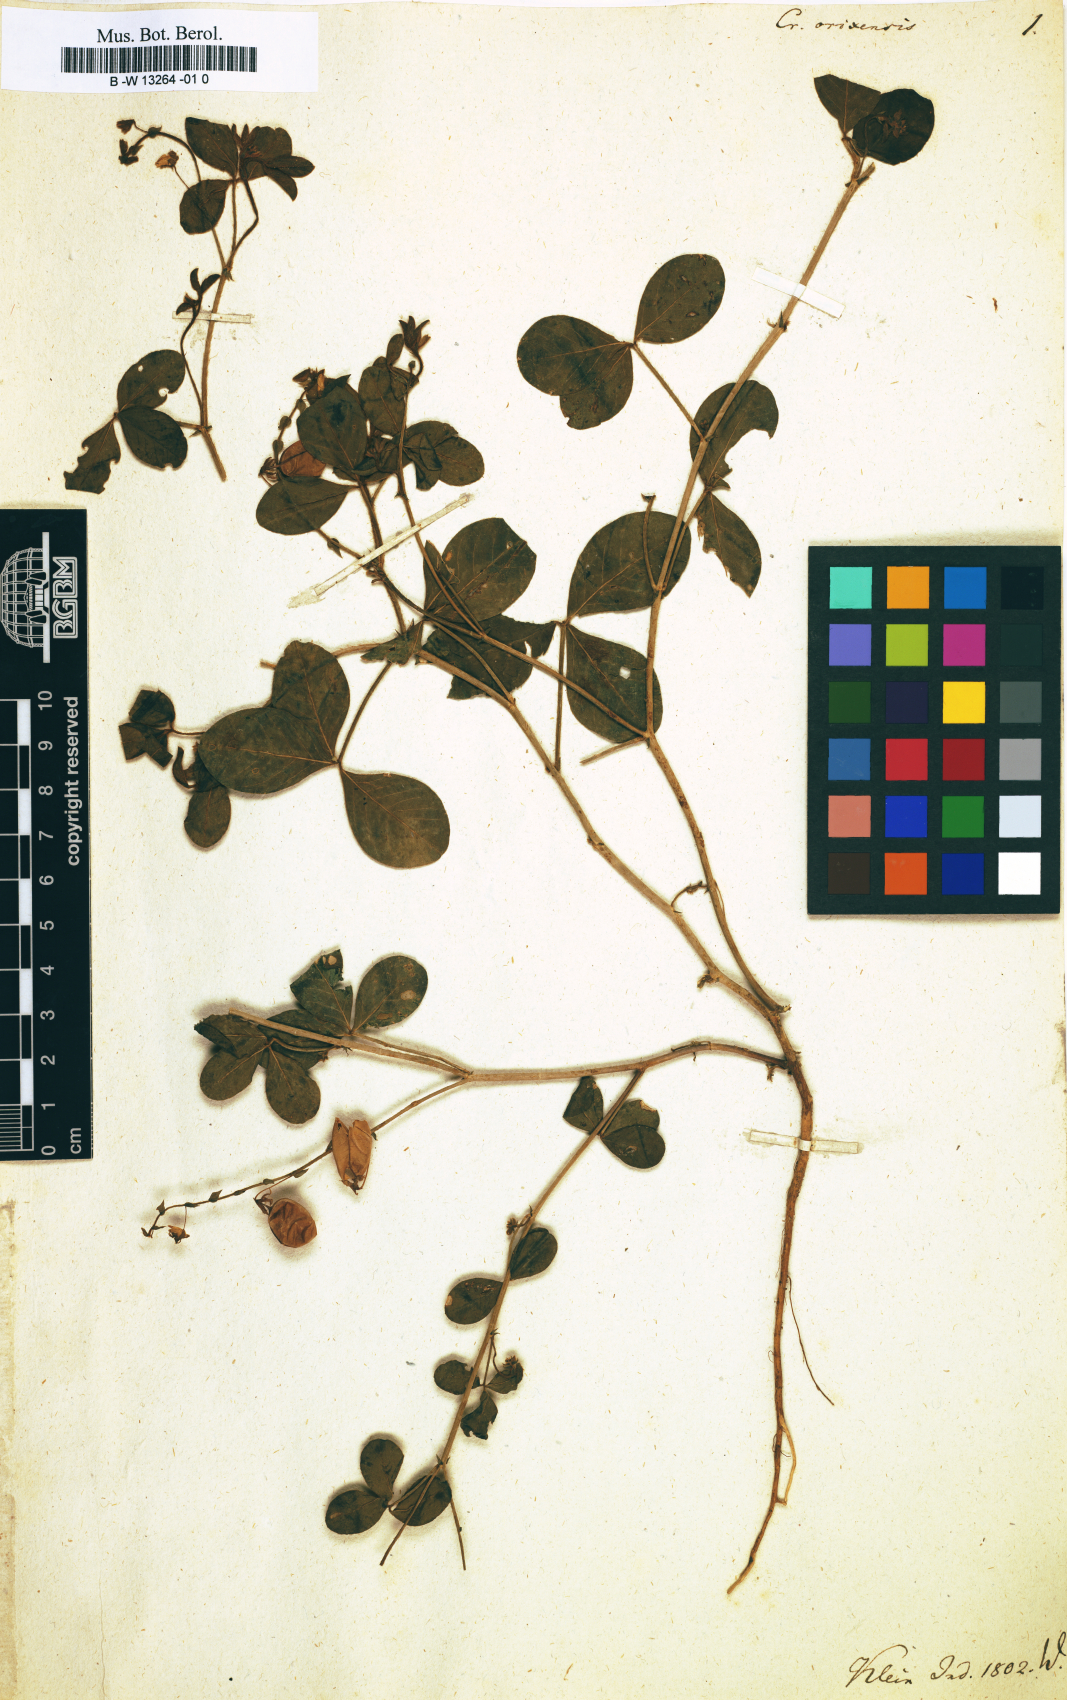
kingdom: Plantae
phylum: Tracheophyta
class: Magnoliopsida
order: Fabales
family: Fabaceae
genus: Crotalaria
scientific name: Crotalaria orixensis
